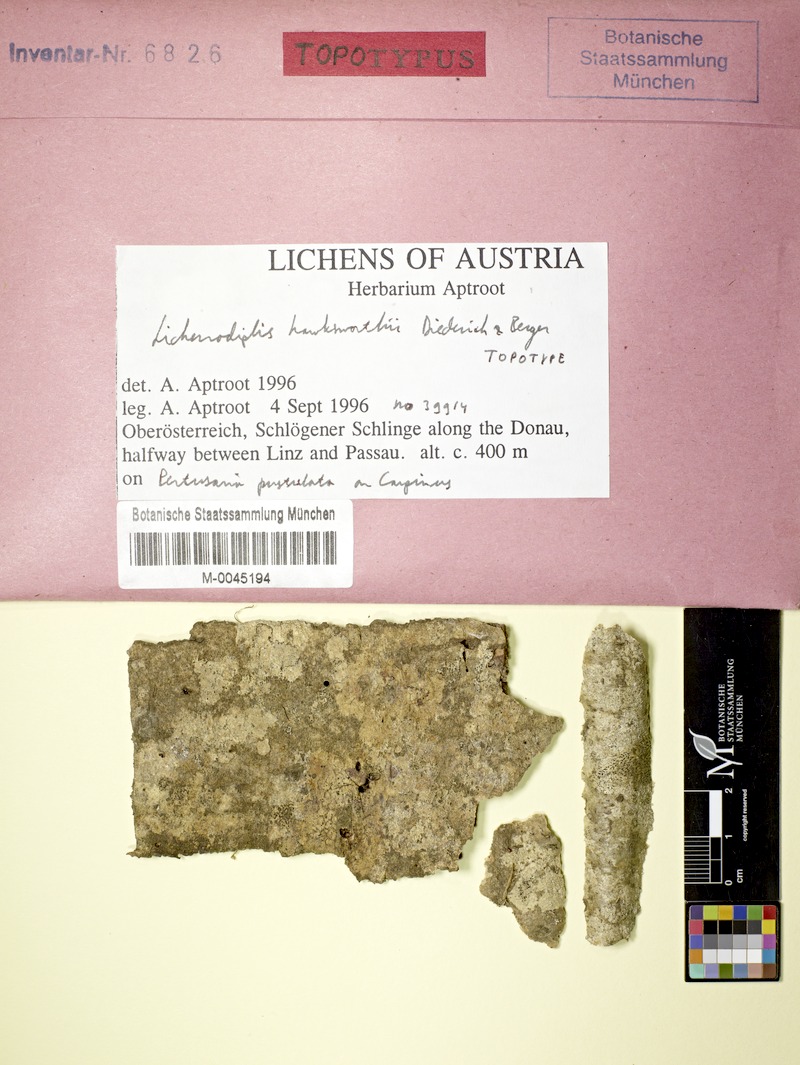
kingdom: Fungi
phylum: Ascomycota
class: Lecanoromycetes
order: Pertusariales
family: Pertusariaceae
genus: Pertusaria
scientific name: Pertusaria pustulata
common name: Branch bumps
